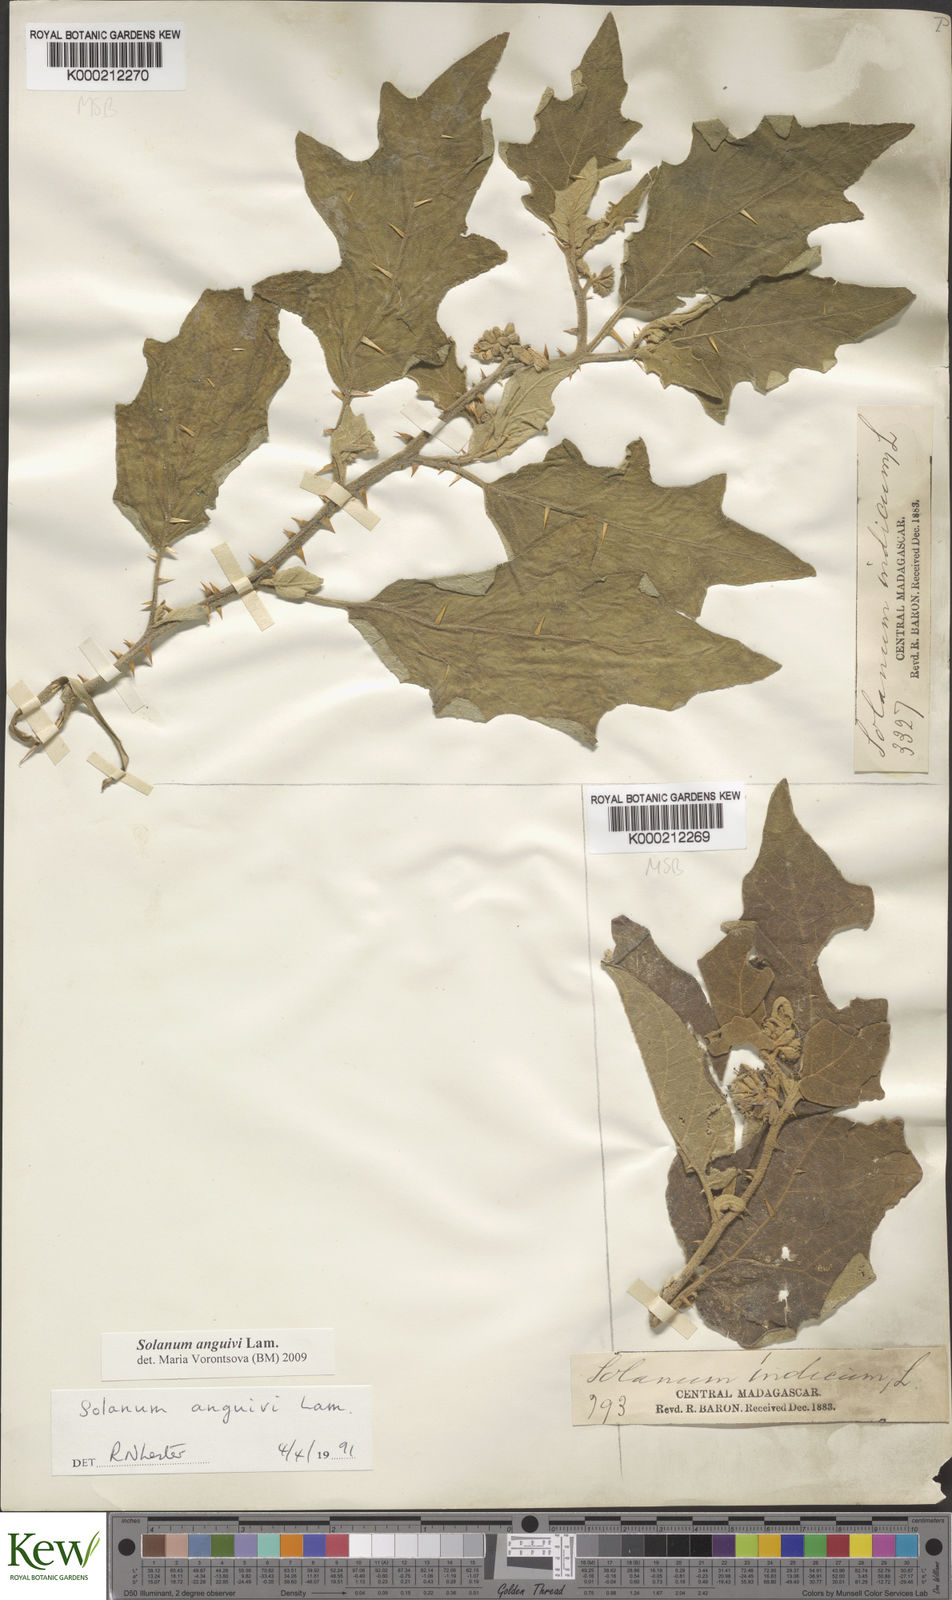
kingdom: Plantae
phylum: Tracheophyta
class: Magnoliopsida
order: Solanales
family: Solanaceae
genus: Solanum
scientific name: Solanum anguivi
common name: Forest bitterberry
